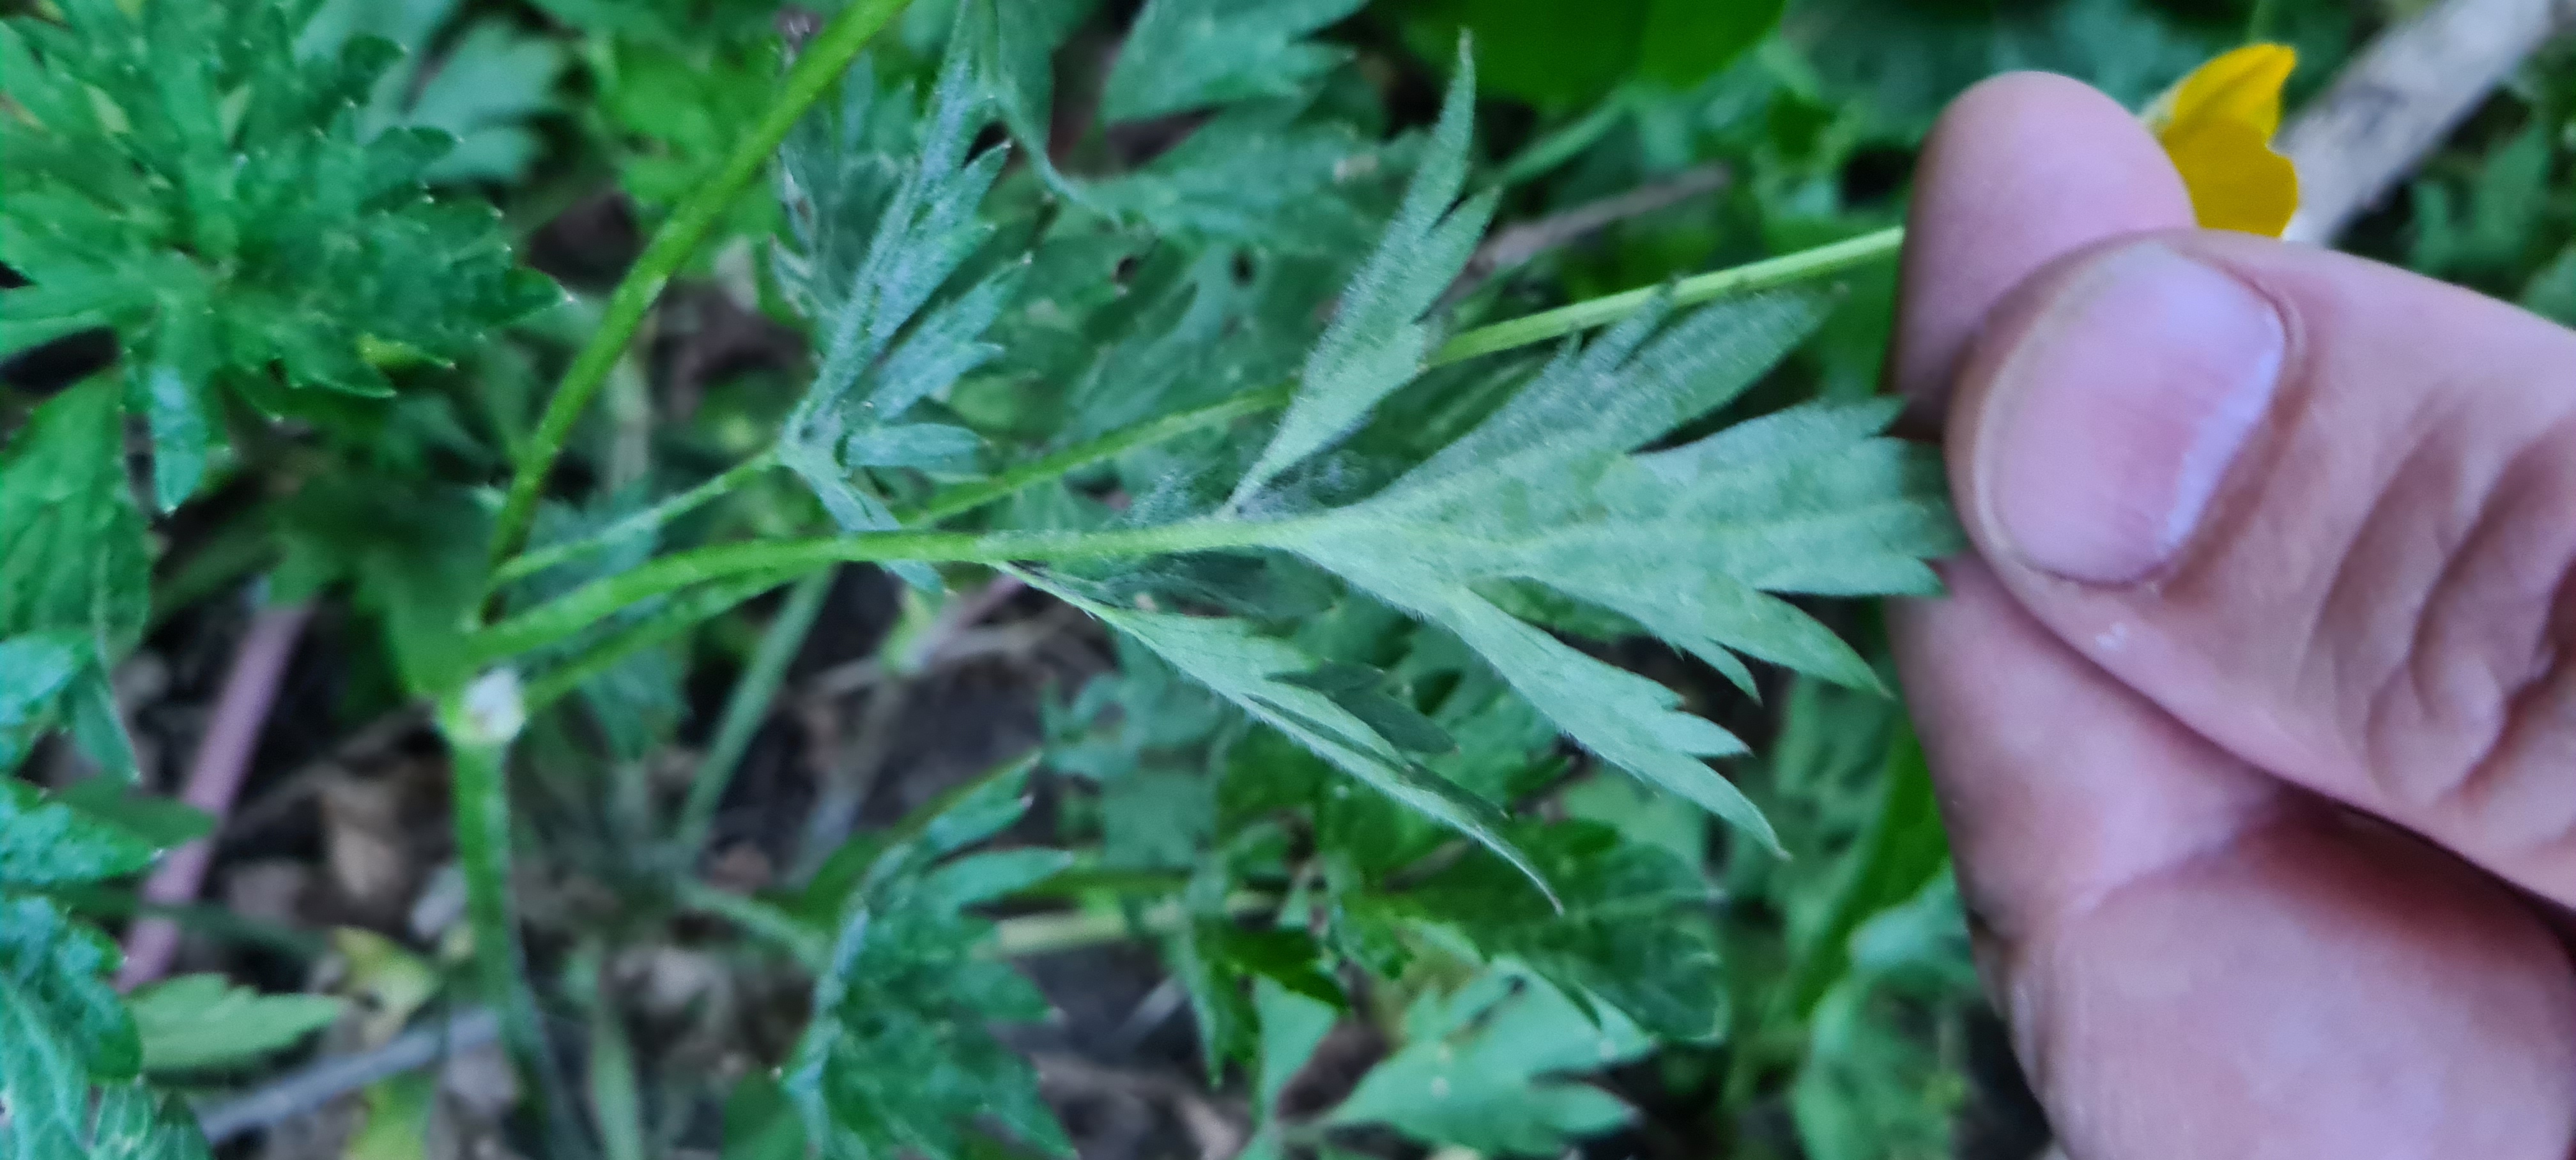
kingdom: Plantae
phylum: Tracheophyta
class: Magnoliopsida
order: Ranunculales
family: Ranunculaceae
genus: Ranunculus
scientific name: Ranunculus repens
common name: Lav ranunkel
